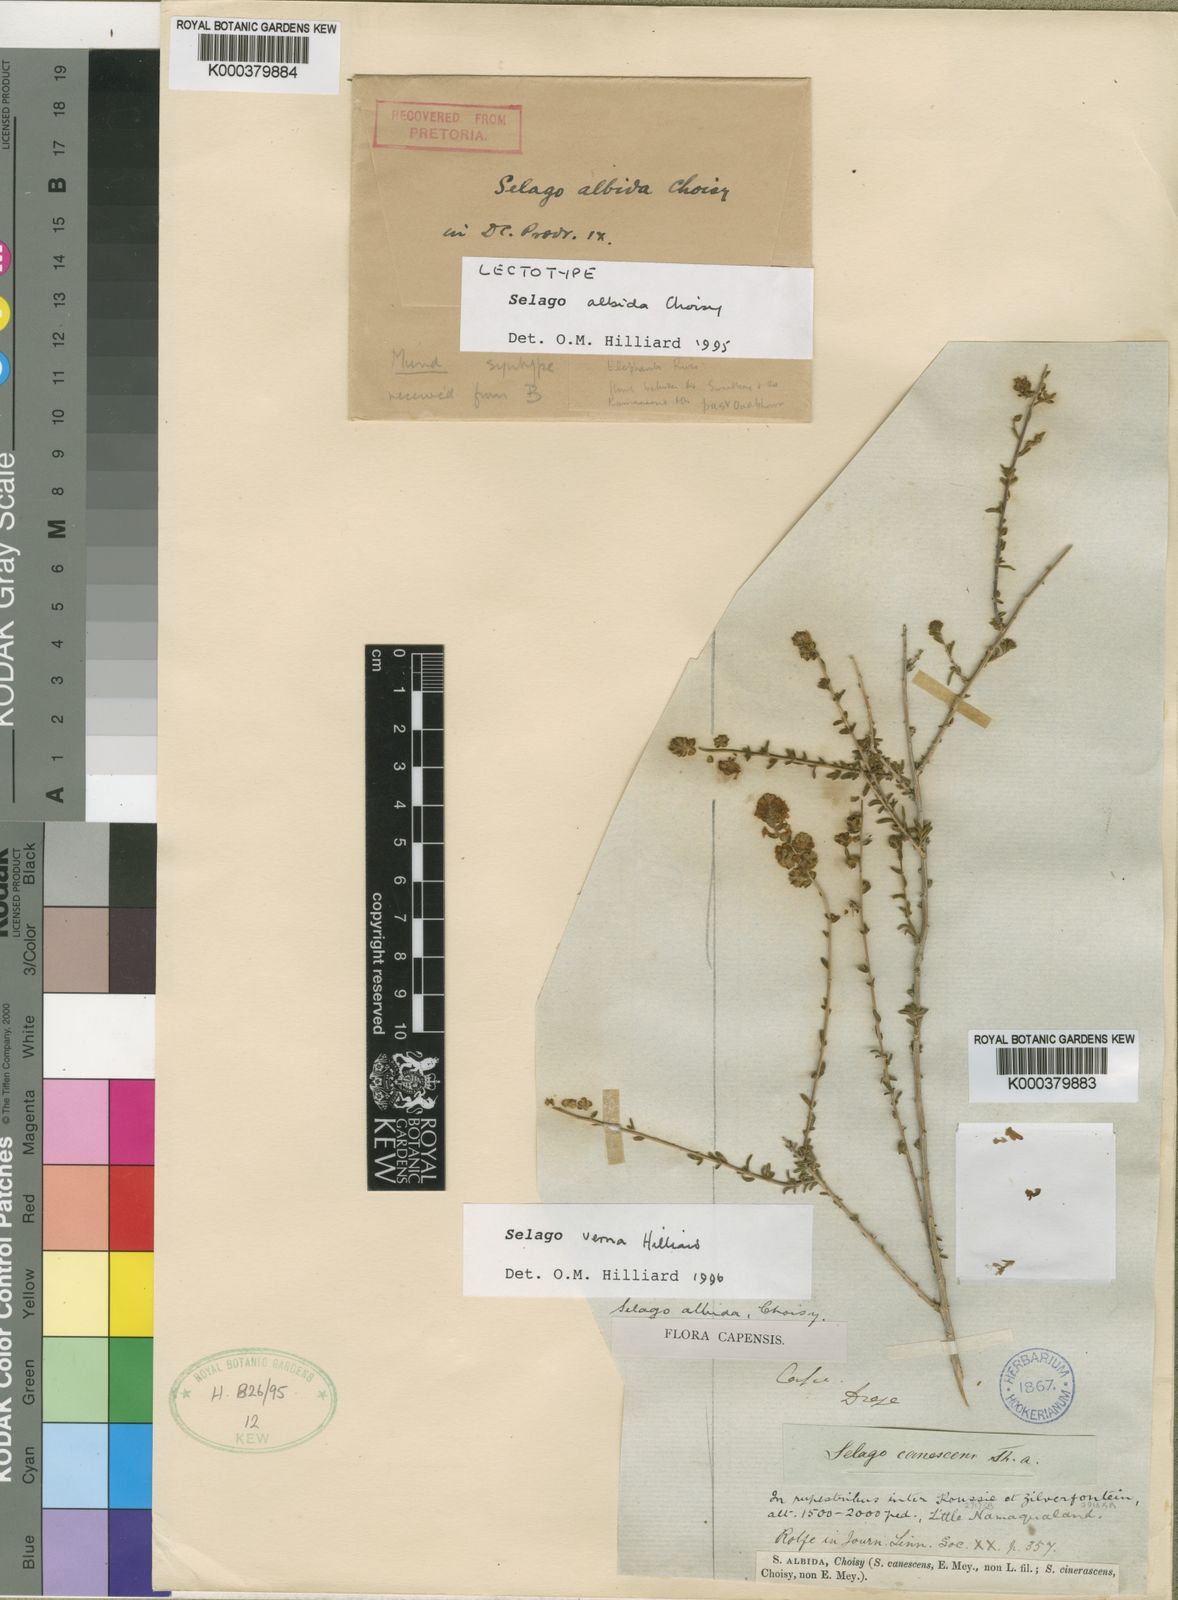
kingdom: Plantae
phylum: Tracheophyta
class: Magnoliopsida
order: Lamiales
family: Scrophulariaceae
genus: Selago
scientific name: Selago albida
